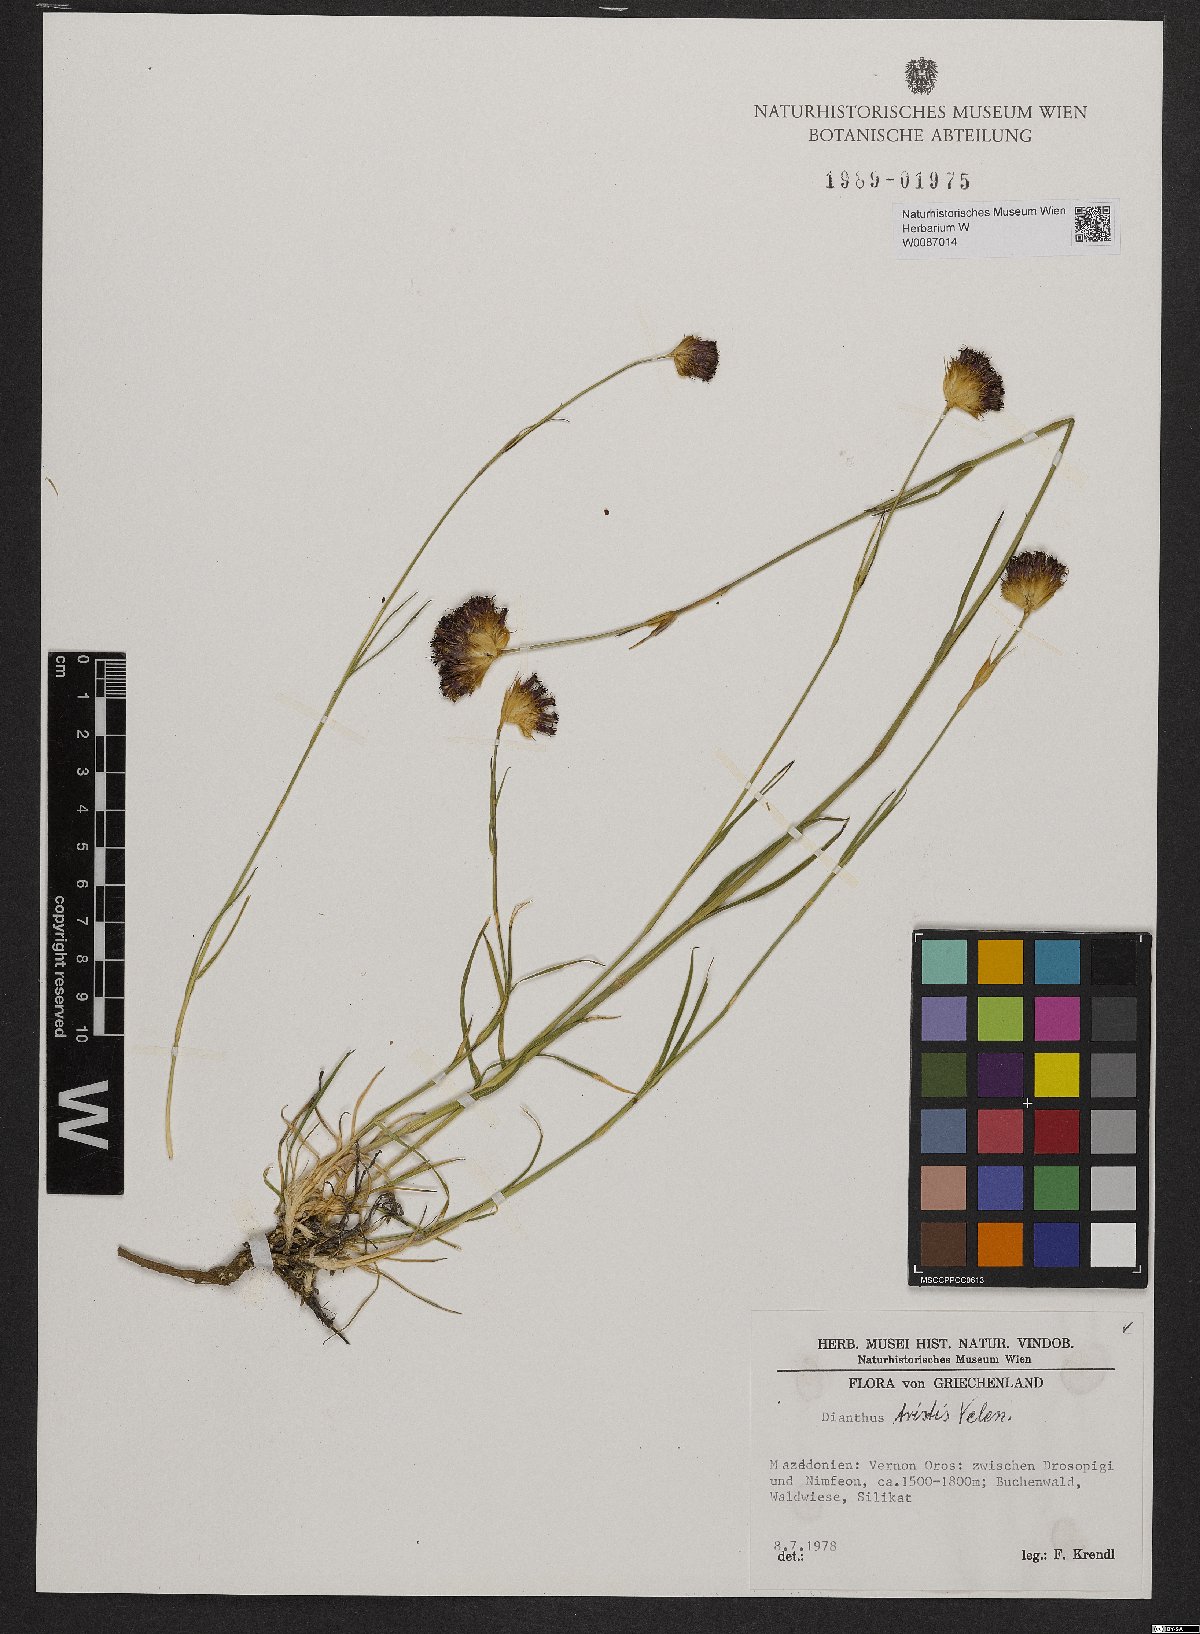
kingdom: Plantae
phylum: Tracheophyta
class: Magnoliopsida
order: Caryophyllales
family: Caryophyllaceae
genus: Dianthus
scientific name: Dianthus pancicii
